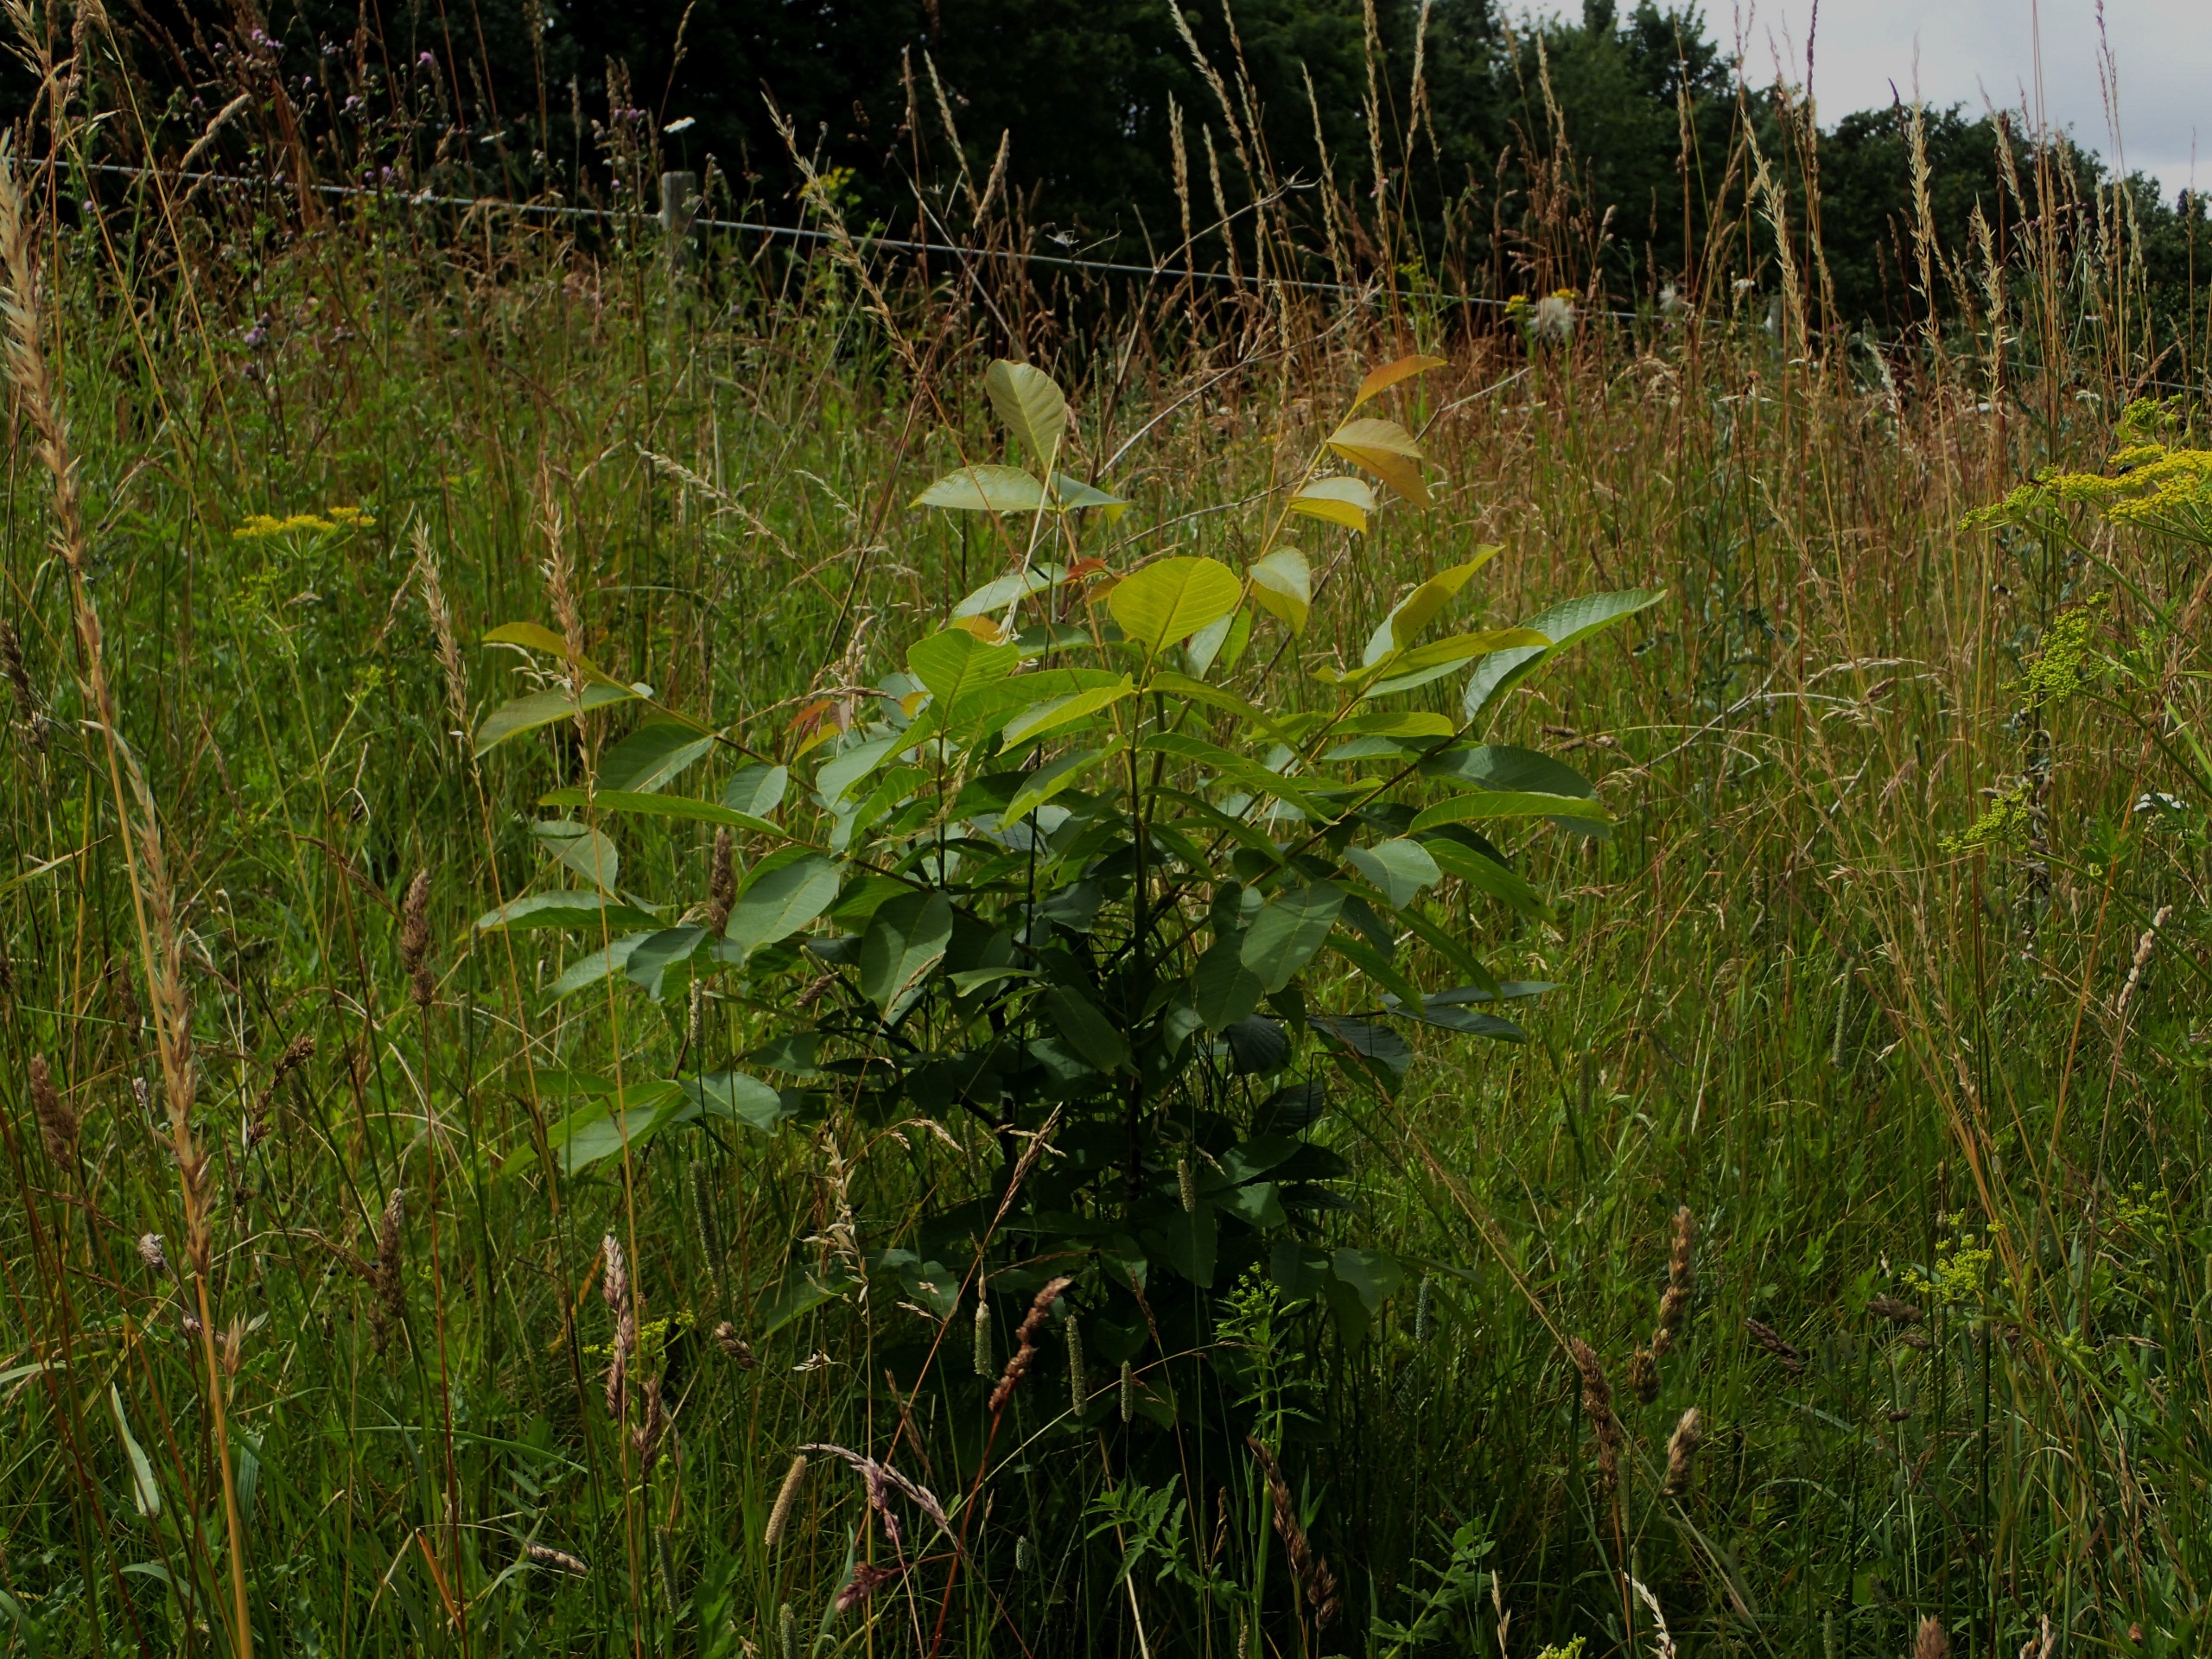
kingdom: Plantae
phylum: Tracheophyta
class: Magnoliopsida
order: Fagales
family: Juglandaceae
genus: Juglans
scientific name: Juglans regia
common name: Almindelig valnød
